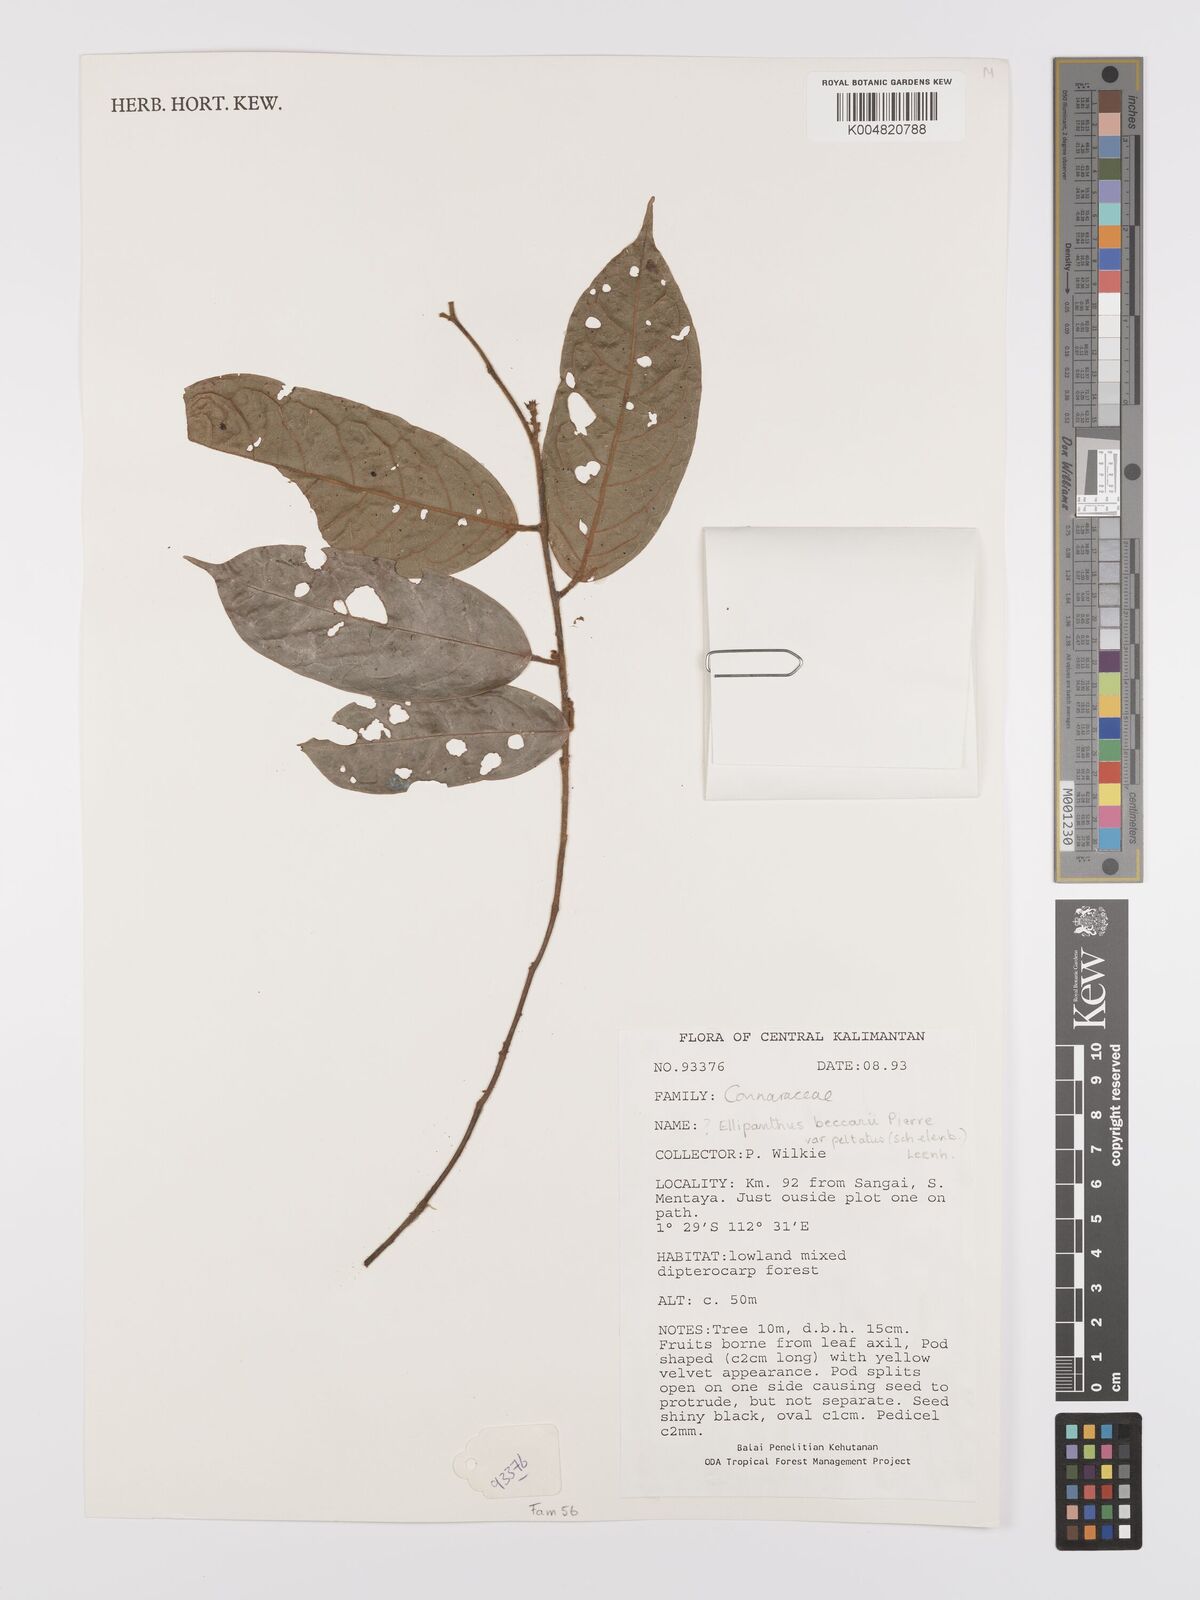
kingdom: Plantae
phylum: Tracheophyta
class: Magnoliopsida
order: Oxalidales
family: Connaraceae
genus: Ellipanthus
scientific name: Ellipanthus beccarii
